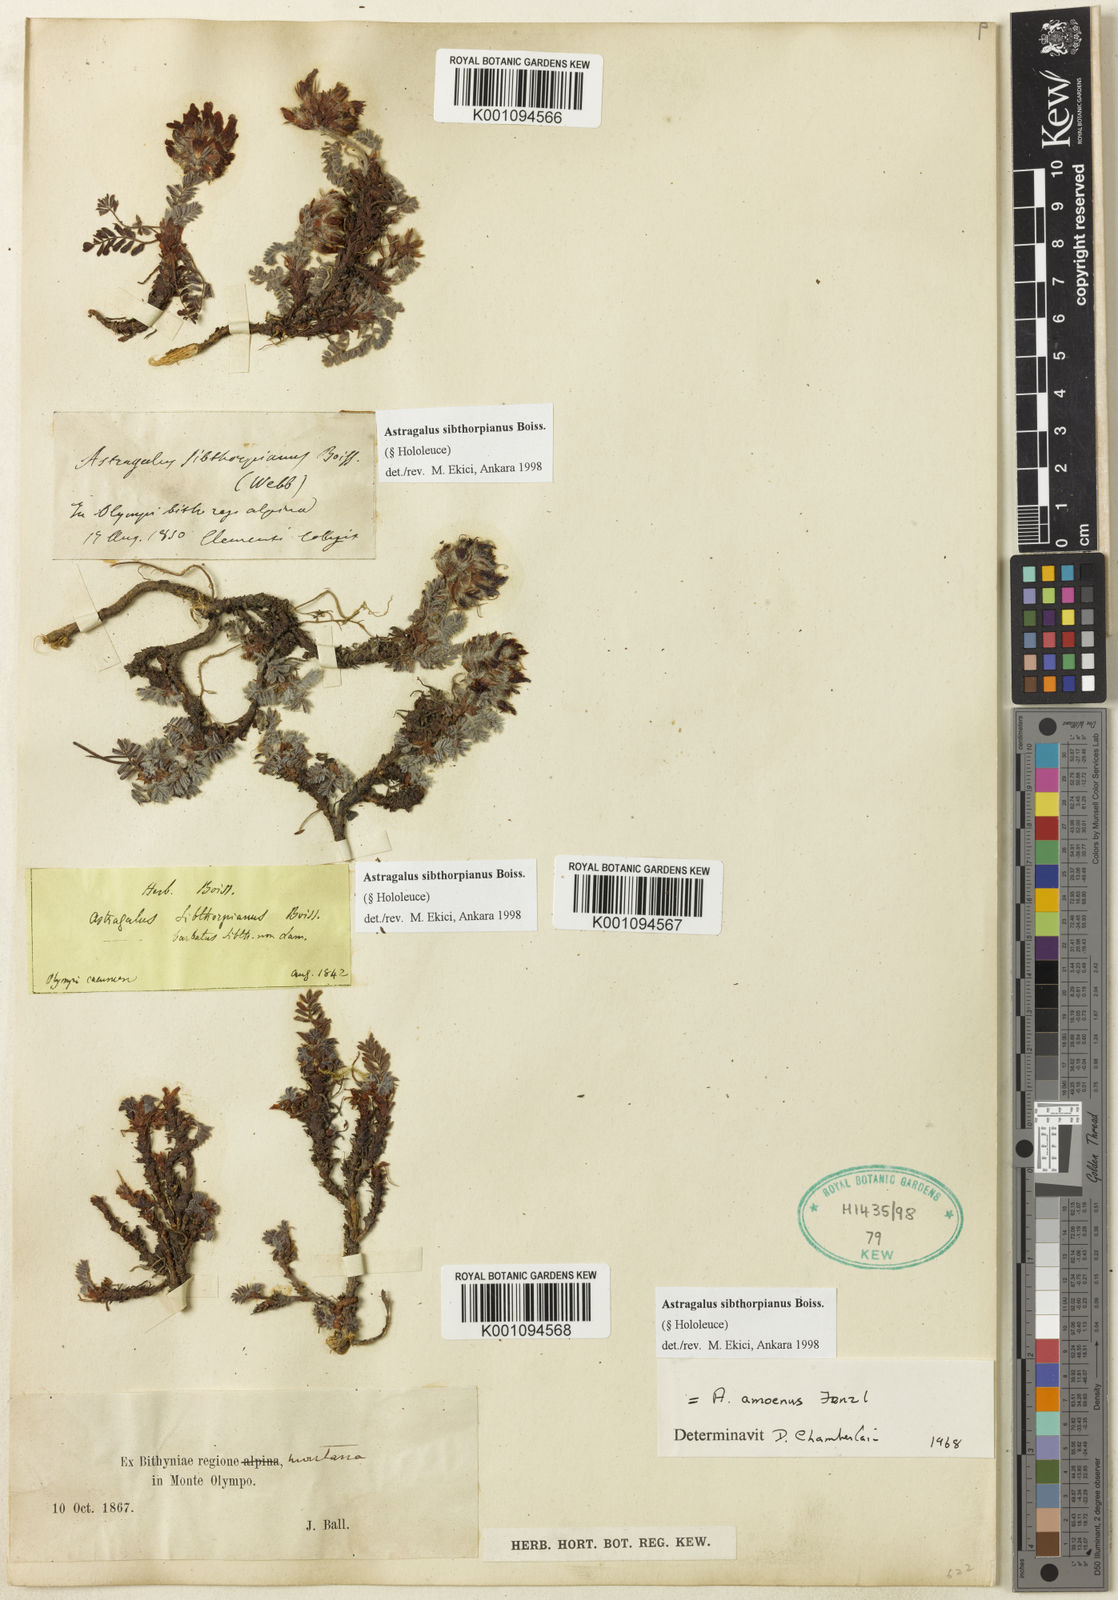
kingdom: Plantae
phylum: Tracheophyta
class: Magnoliopsida
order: Fabales
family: Fabaceae
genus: Astragalus
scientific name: Astragalus
